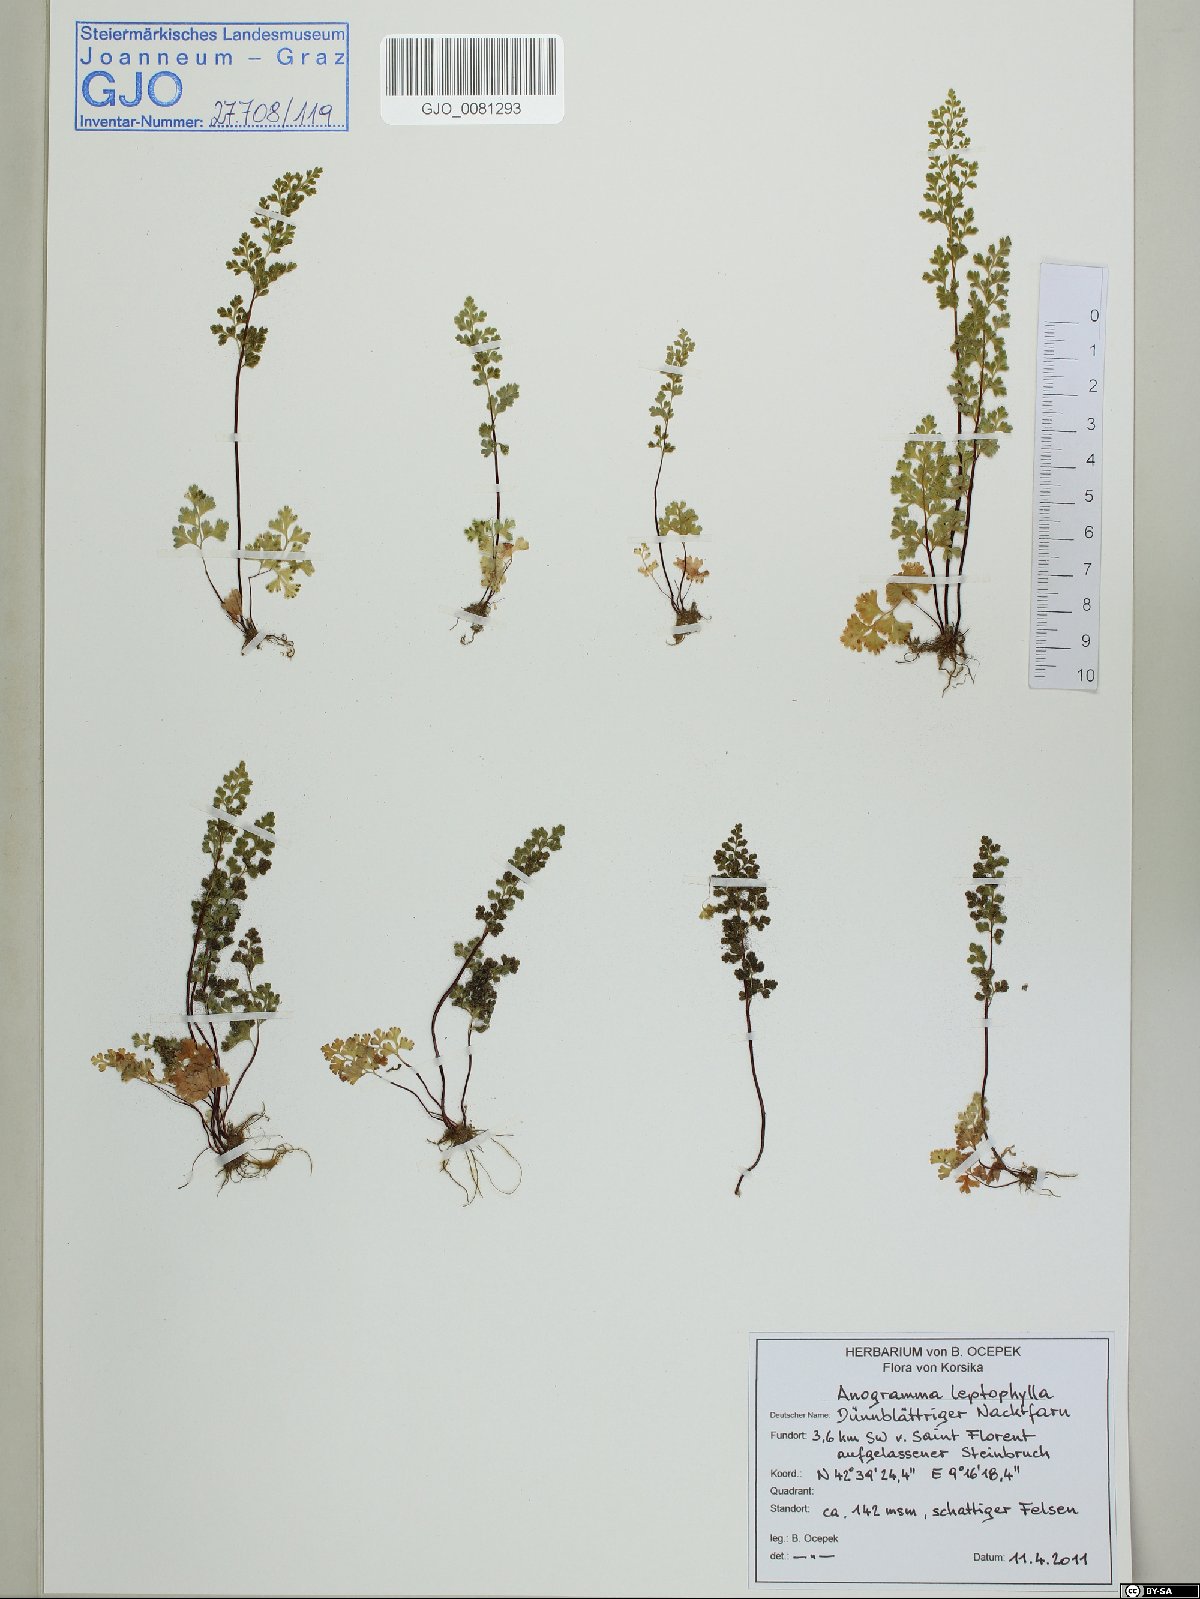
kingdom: Plantae
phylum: Tracheophyta
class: Polypodiopsida
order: Polypodiales
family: Pteridaceae
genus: Anogramma
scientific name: Anogramma leptophylla
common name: Jersey fern
